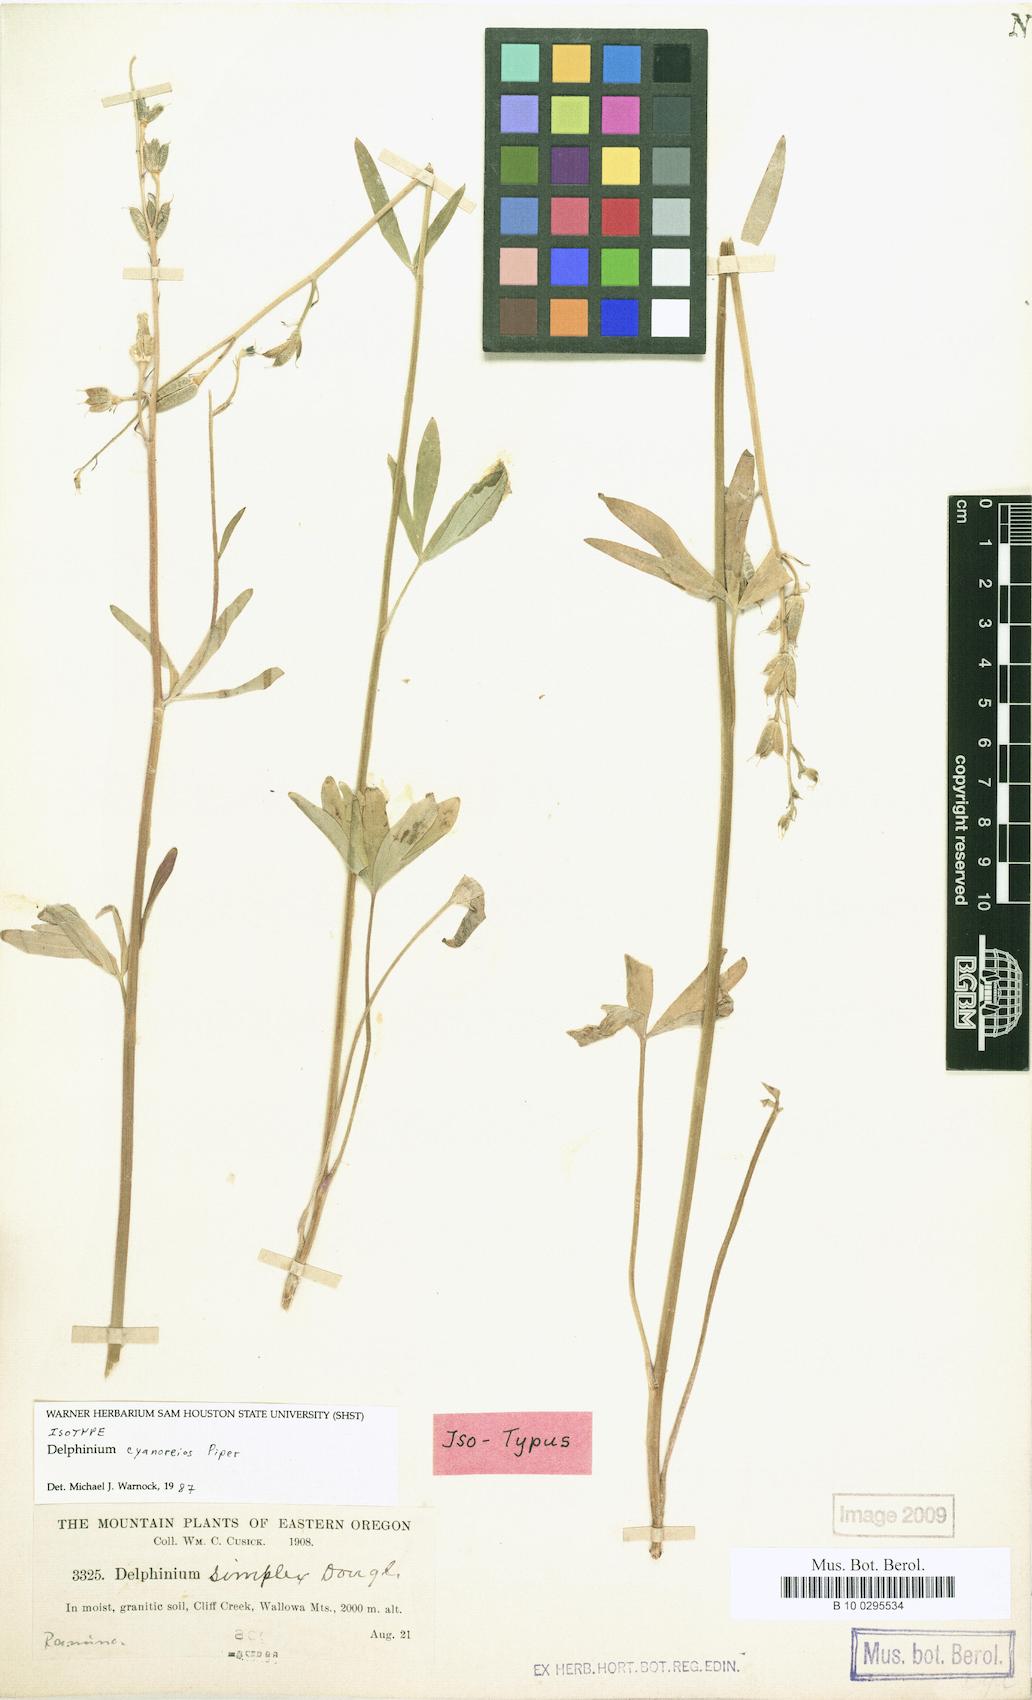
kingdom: Plantae
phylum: Tracheophyta
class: Magnoliopsida
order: Ranunculales
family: Ranunculaceae
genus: Delphinium
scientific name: Delphinium depauperatum
